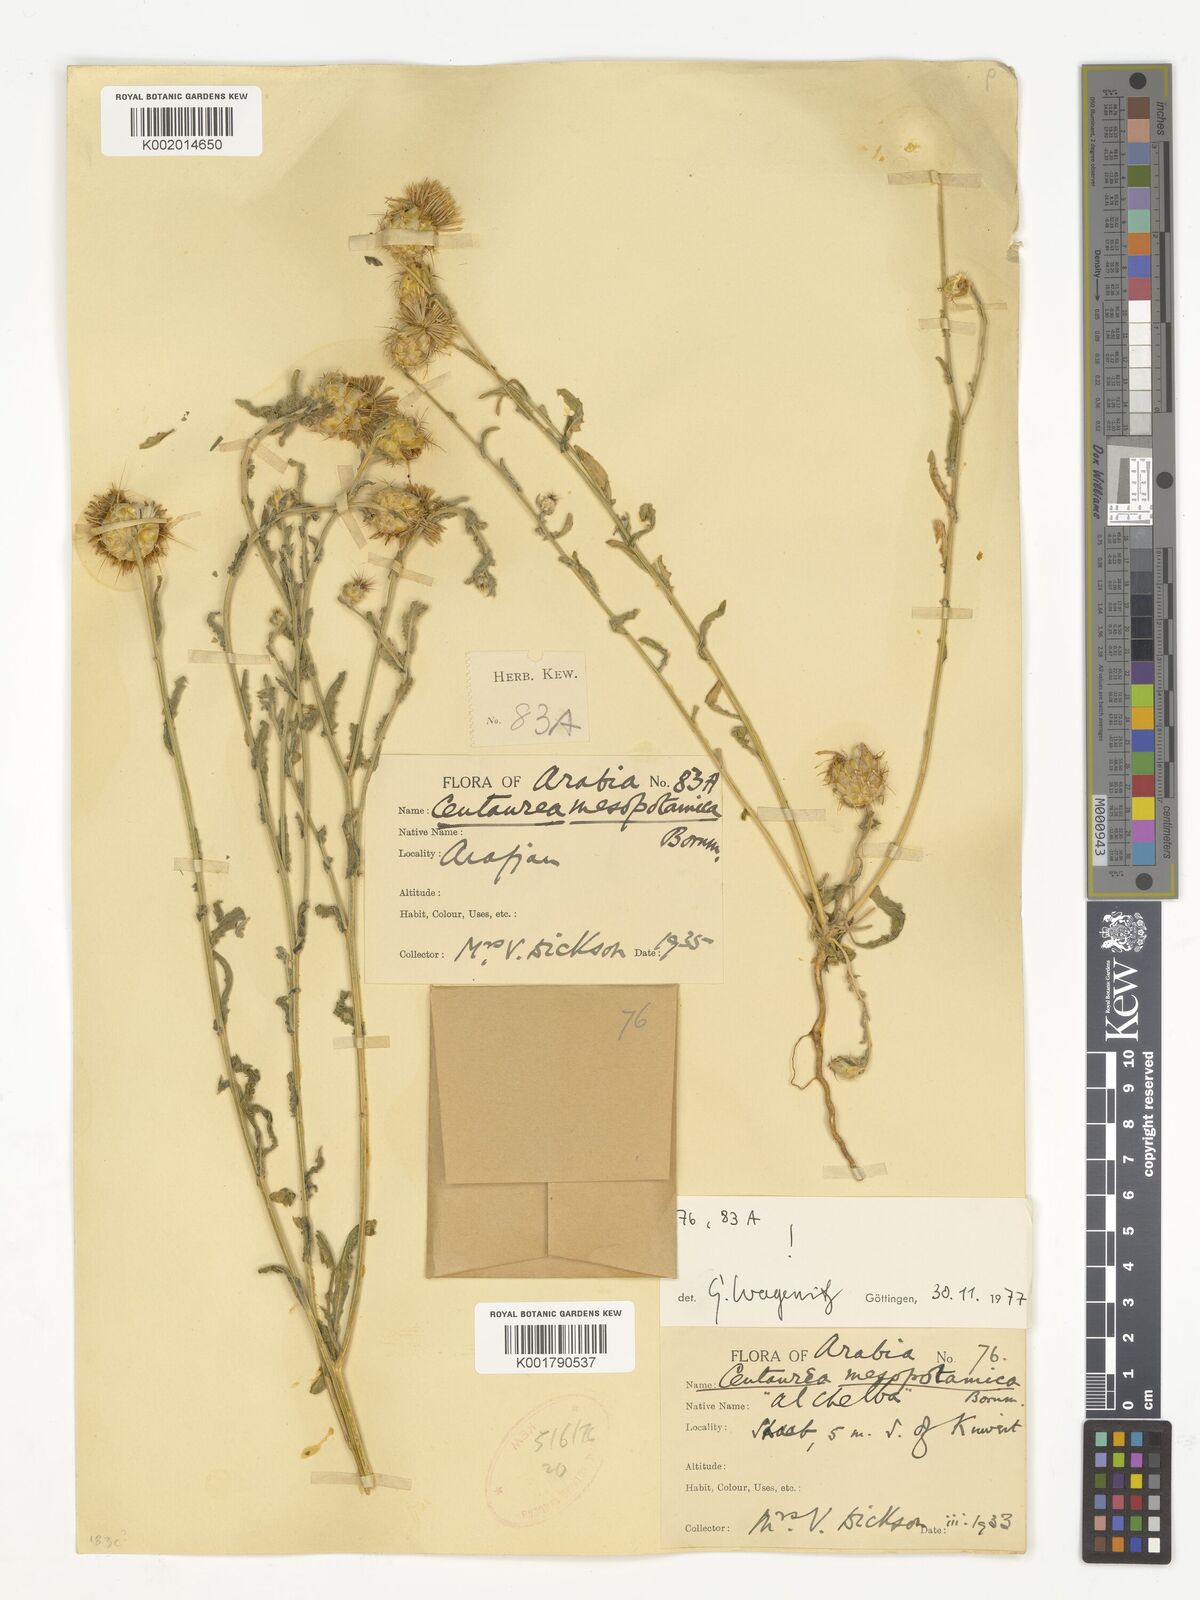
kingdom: Plantae
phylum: Tracheophyta
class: Magnoliopsida
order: Asterales
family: Asteraceae
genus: Centaurea
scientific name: Centaurea mesopotamica
